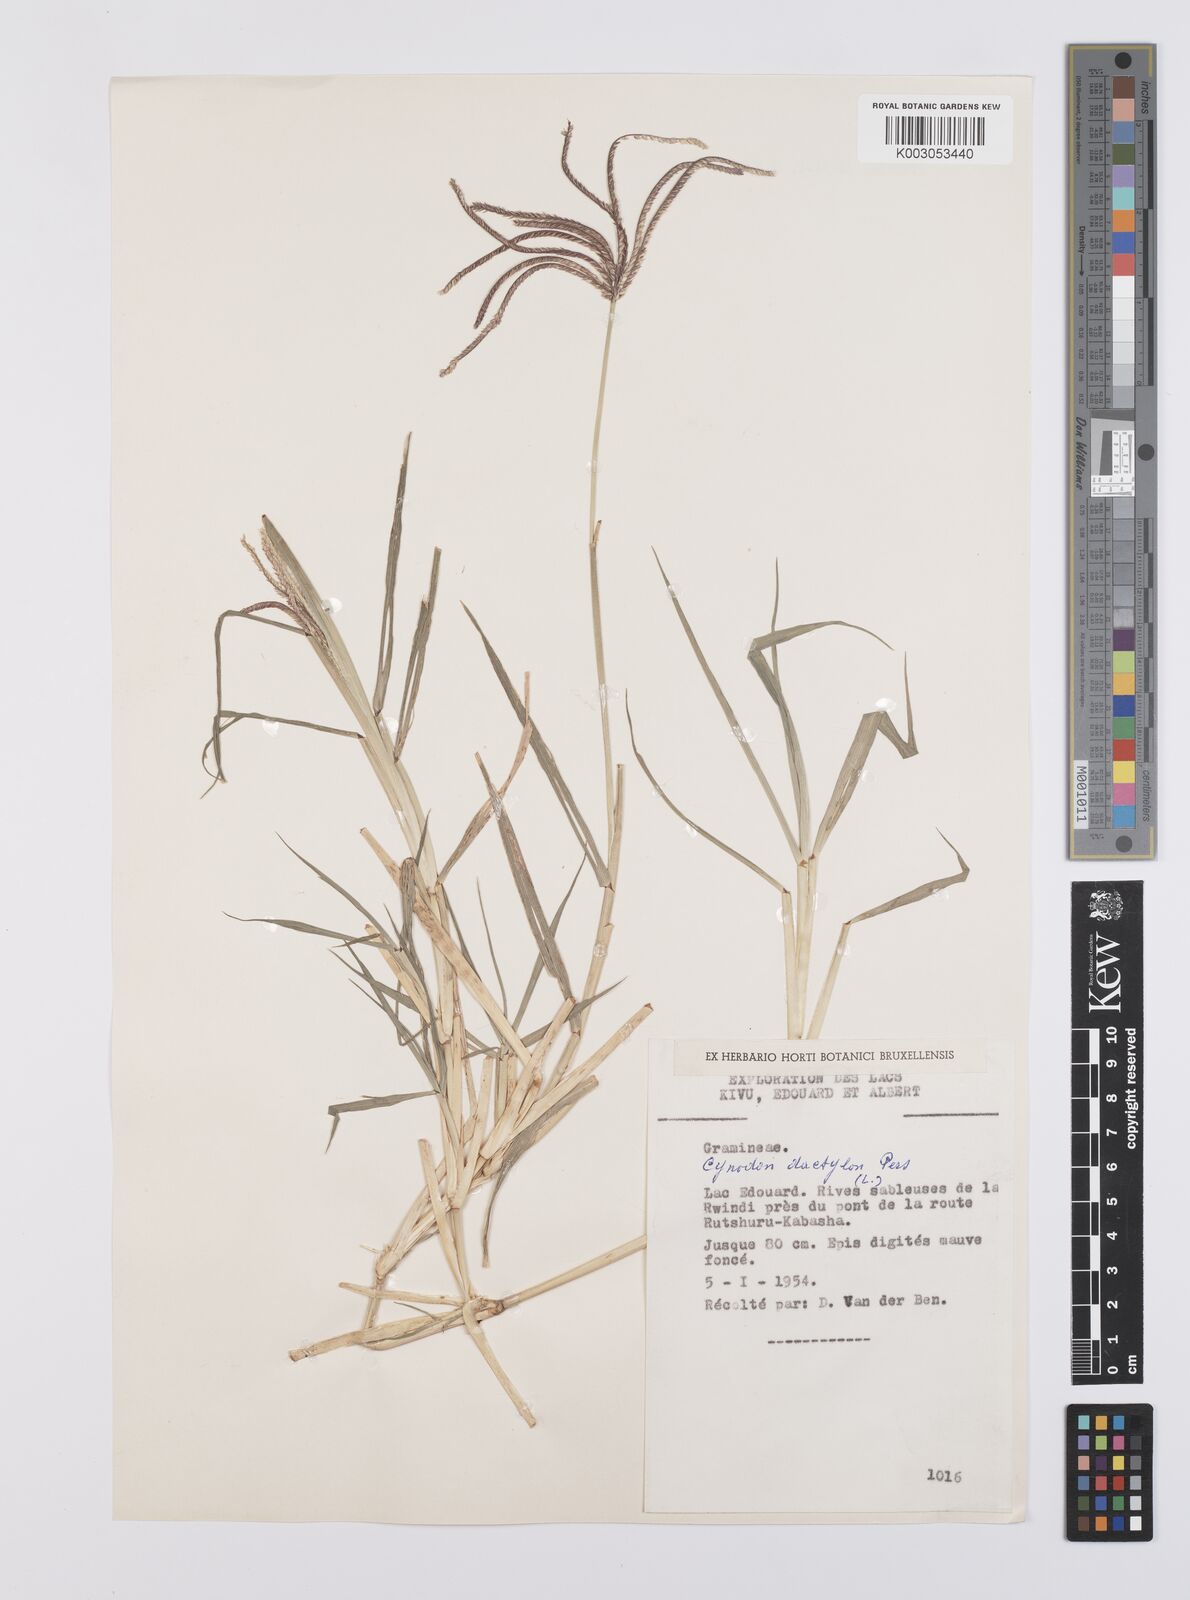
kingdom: Plantae
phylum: Tracheophyta
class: Liliopsida
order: Poales
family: Poaceae
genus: Cynodon
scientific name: Cynodon aethiopicus
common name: Ethiopian dogstooth grass
